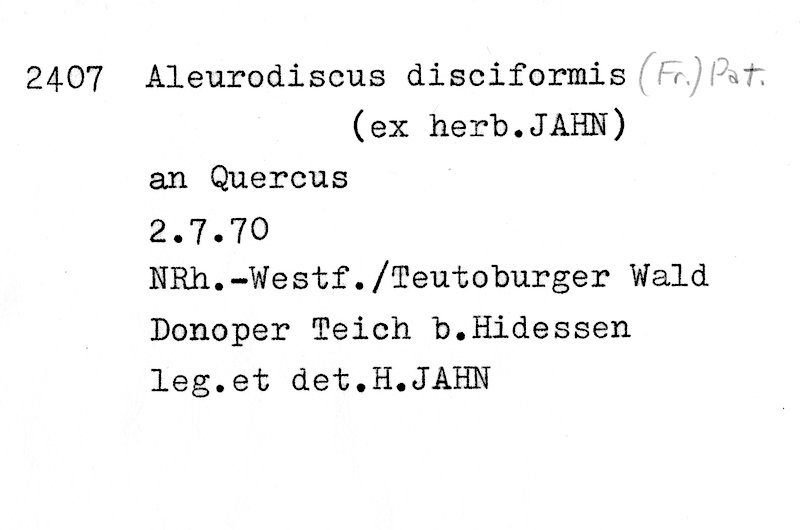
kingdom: Plantae
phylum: Tracheophyta
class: Magnoliopsida
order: Fagales
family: Fagaceae
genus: Quercus
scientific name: Quercus
